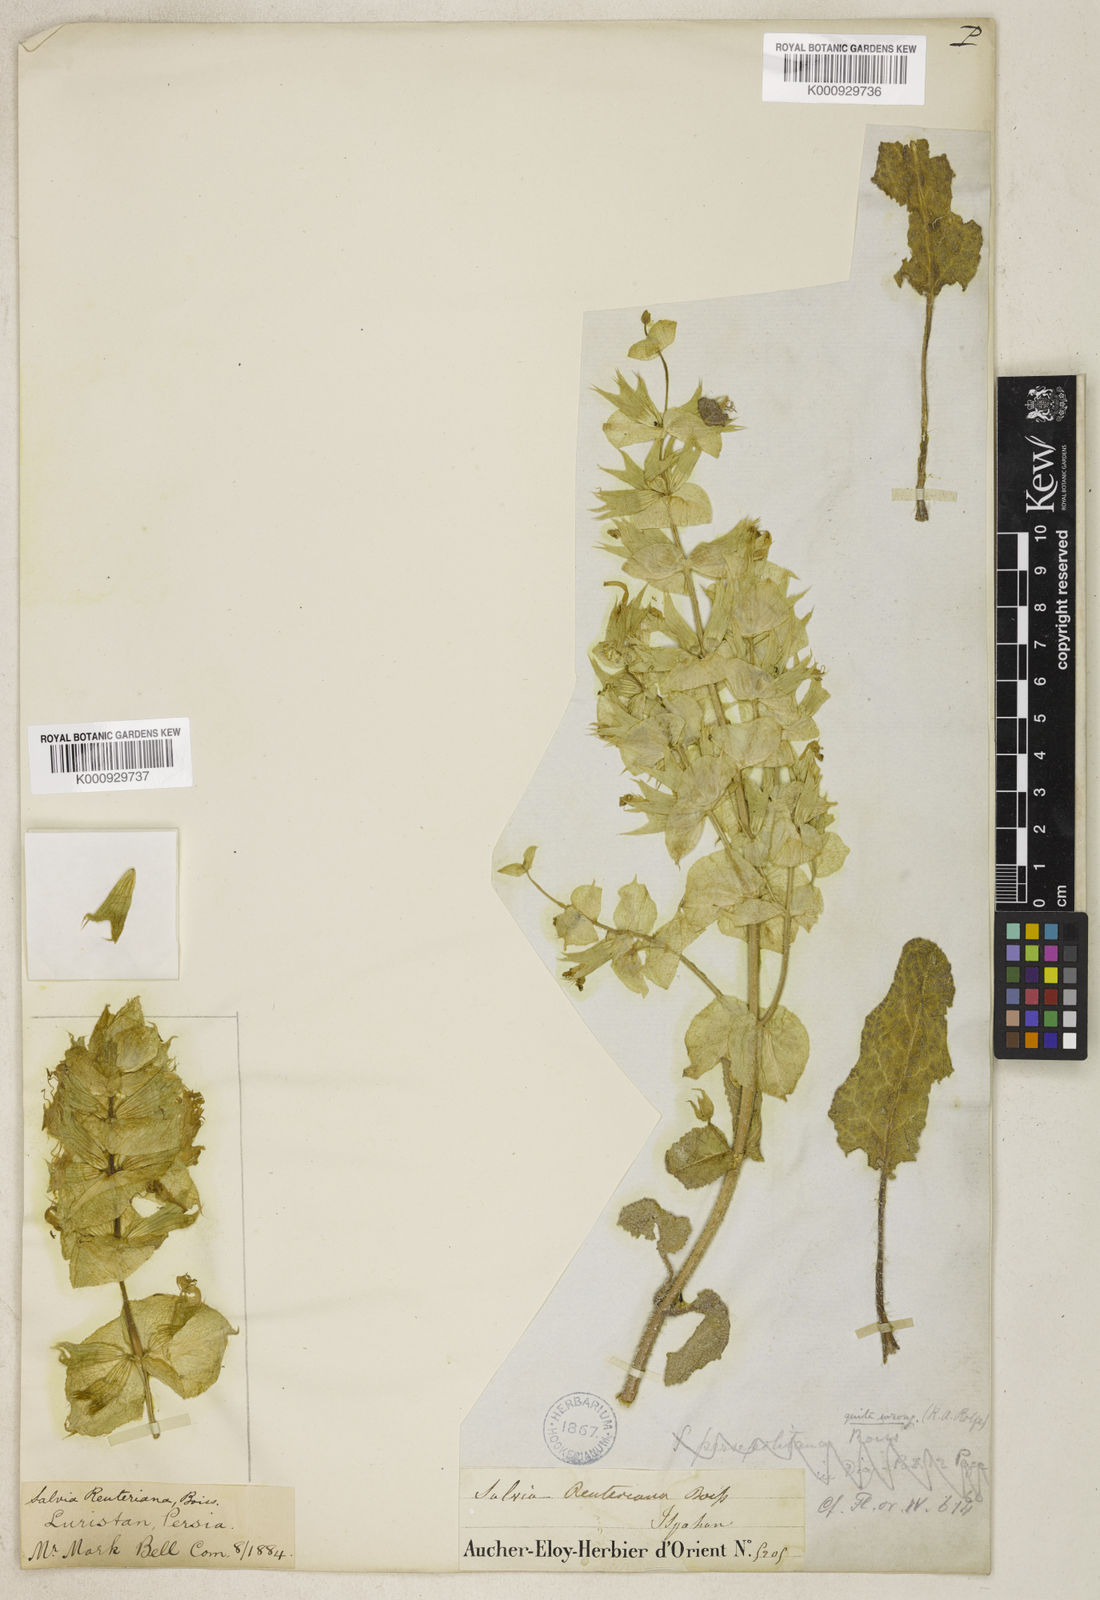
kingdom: Plantae
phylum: Tracheophyta
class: Magnoliopsida
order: Lamiales
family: Lamiaceae
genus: Salvia
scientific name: Salvia reuteriana
